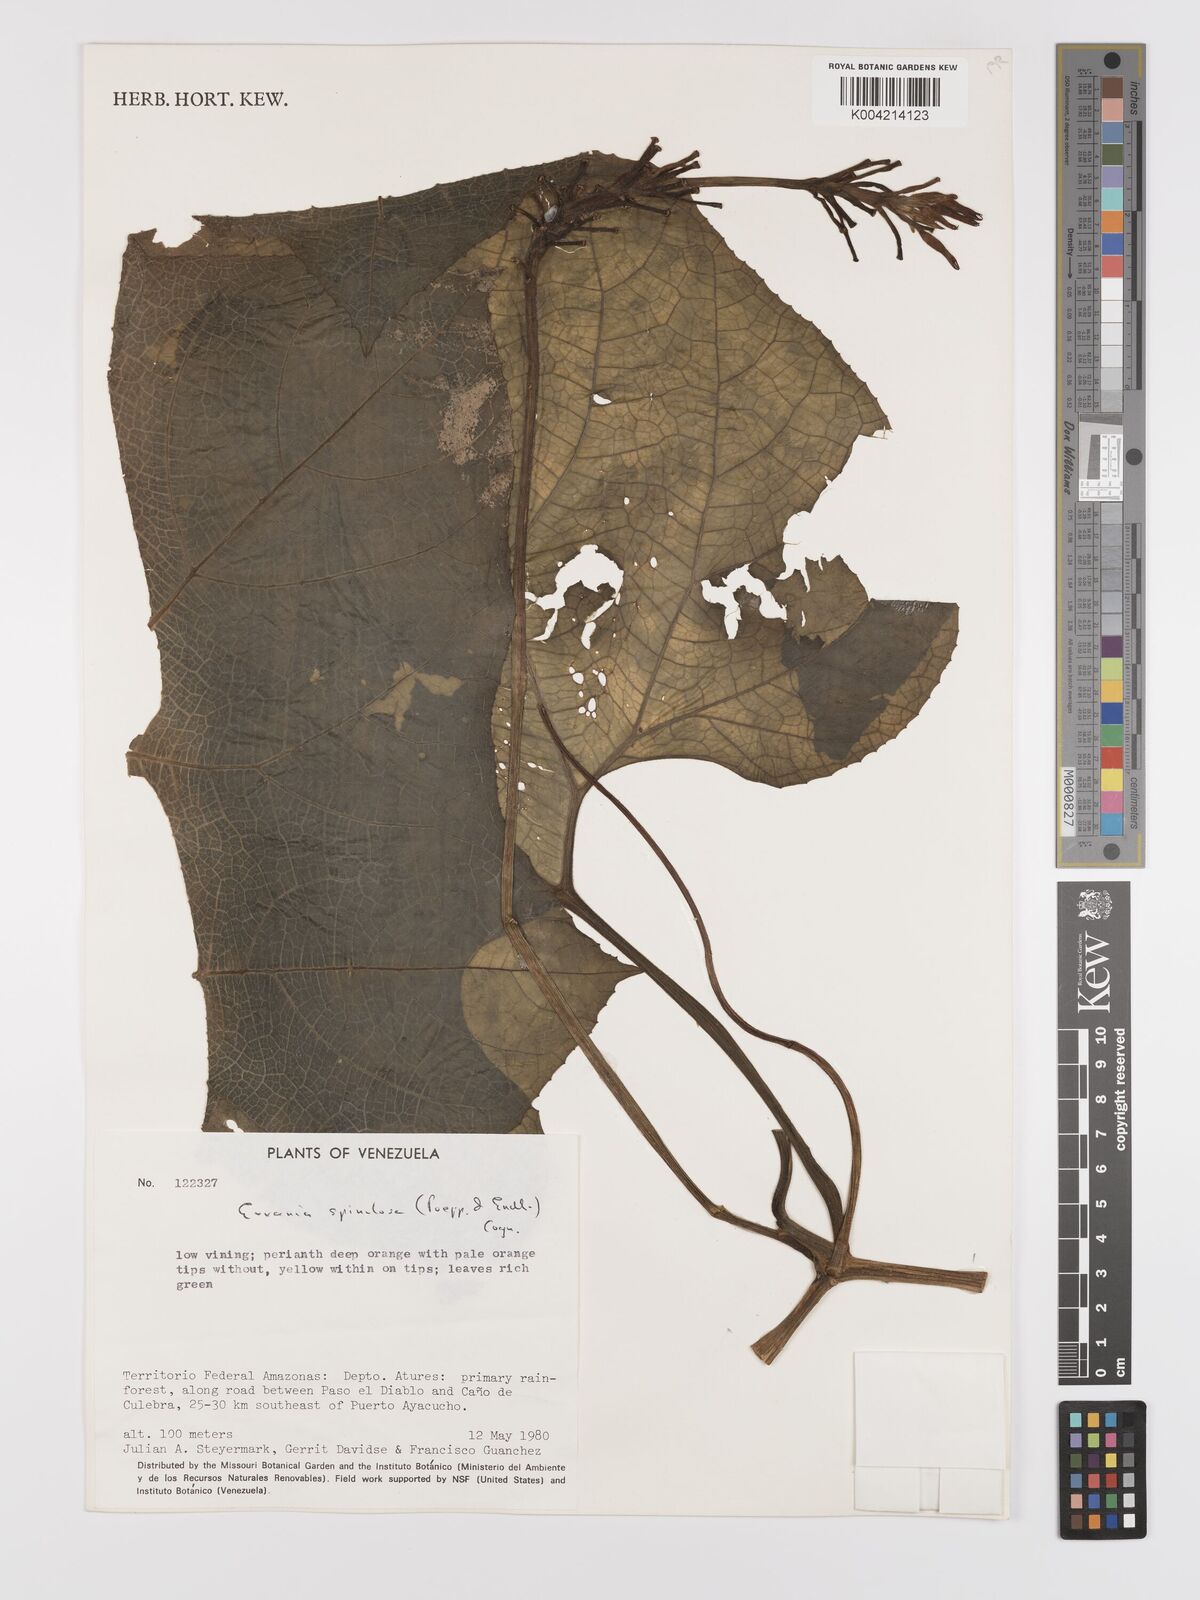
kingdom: Plantae
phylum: Tracheophyta
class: Magnoliopsida
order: Cucurbitales
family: Cucurbitaceae
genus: Gurania
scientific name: Gurania lobata
